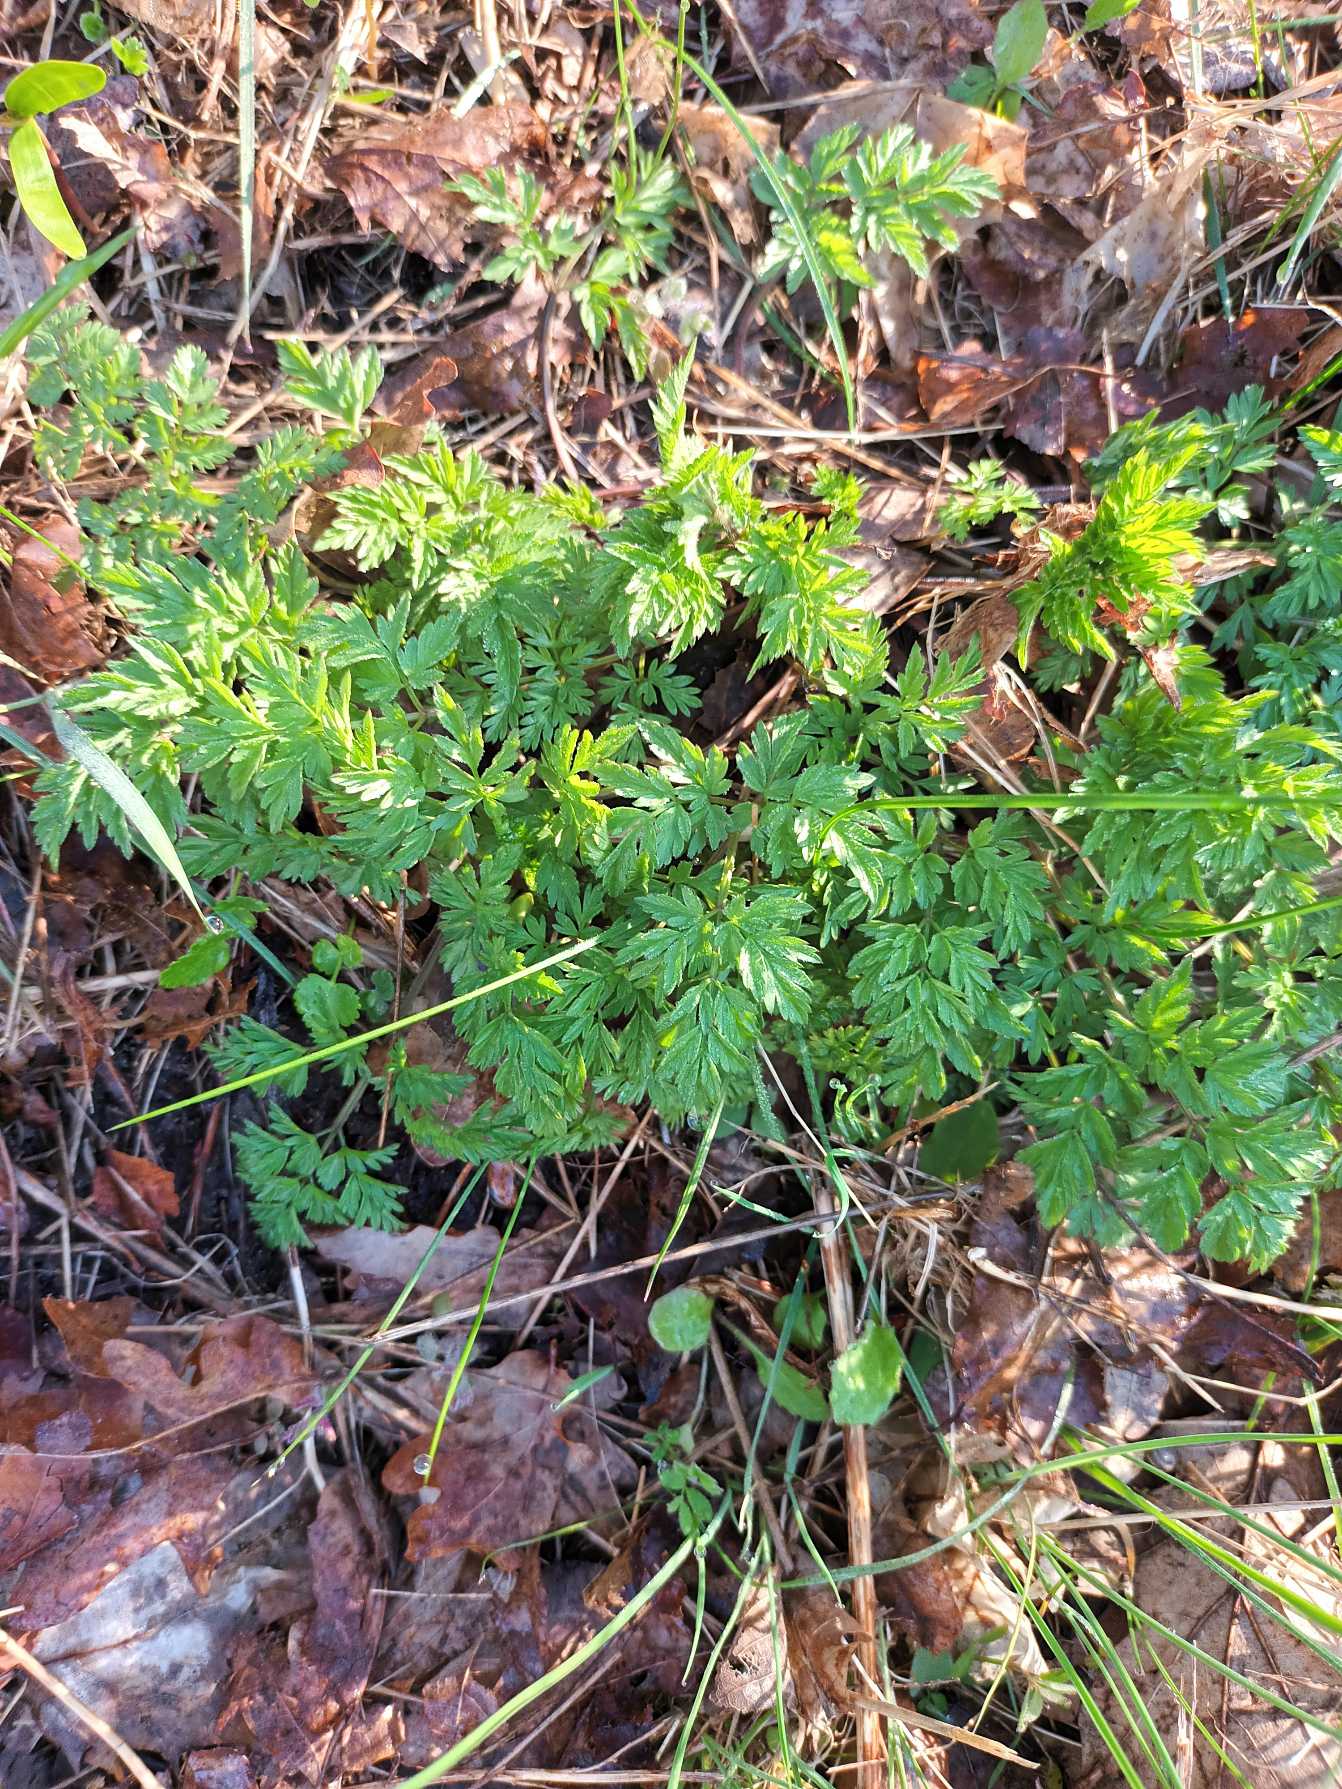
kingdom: Plantae
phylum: Tracheophyta
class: Magnoliopsida
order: Apiales
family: Apiaceae
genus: Anthriscus
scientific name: Anthriscus sylvestris
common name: Vild kørvel
